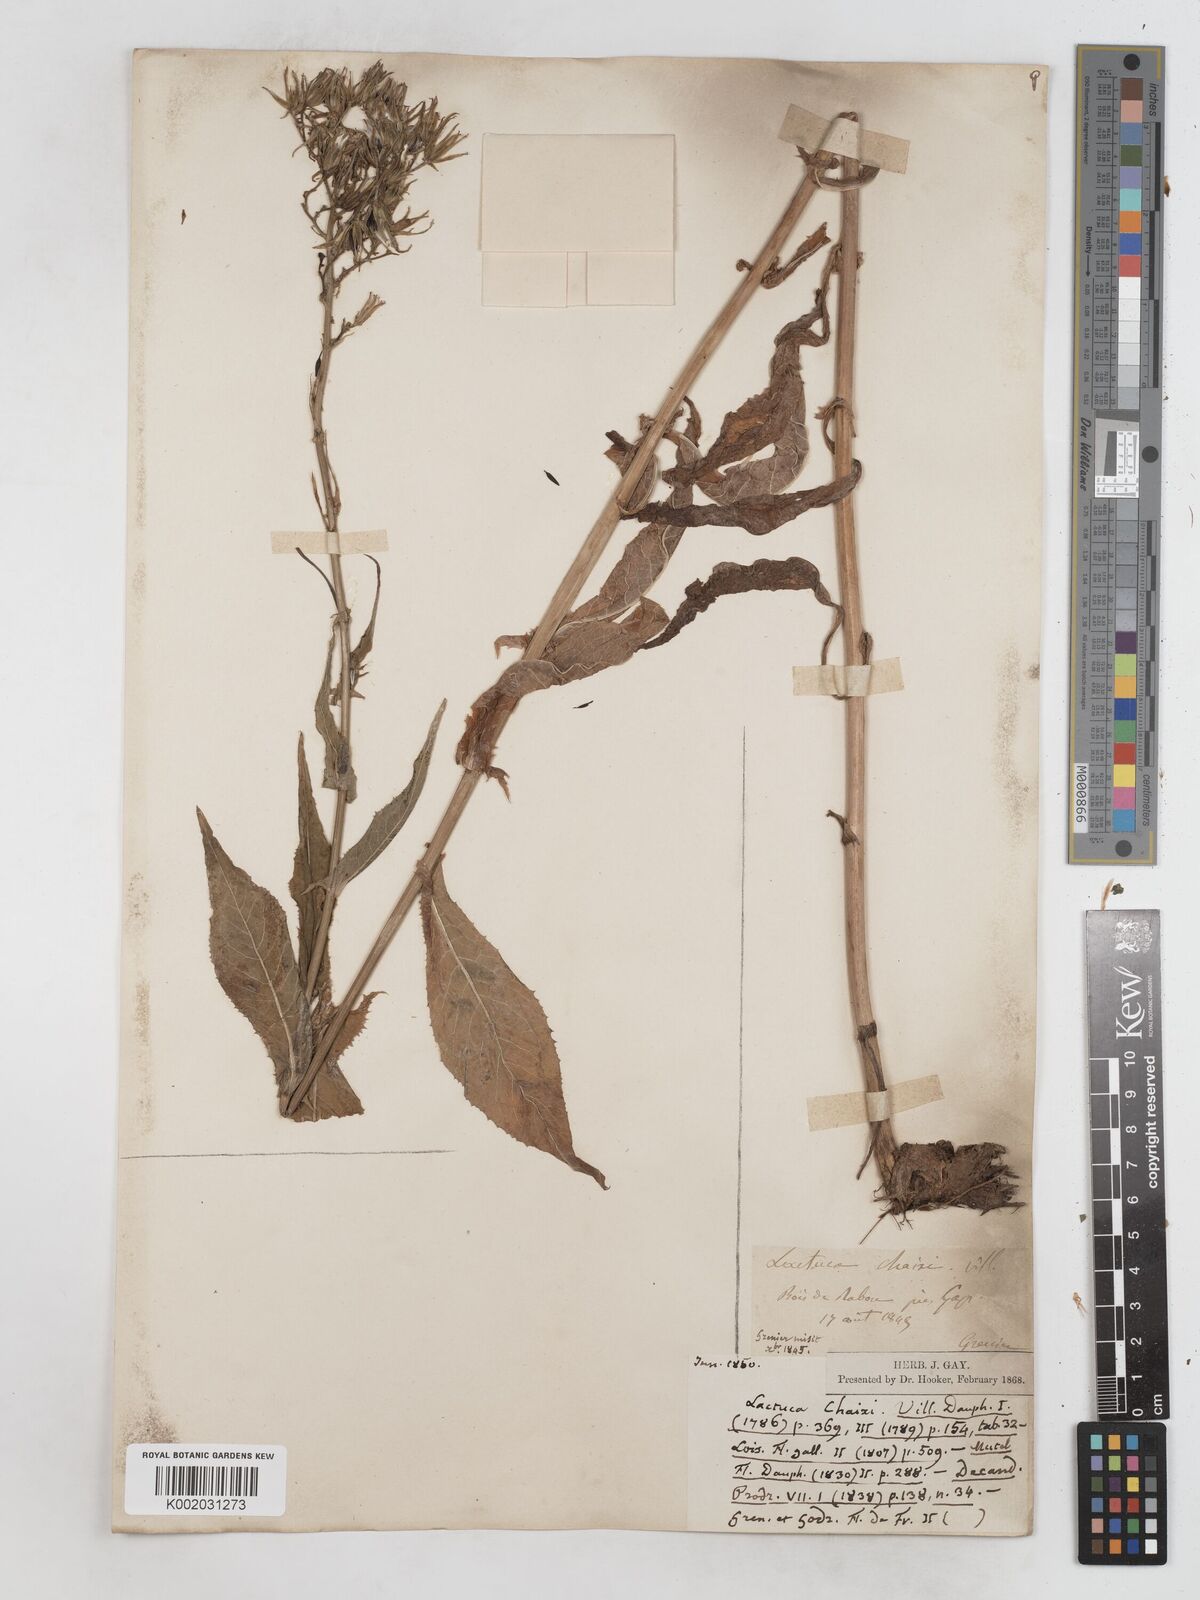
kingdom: Plantae
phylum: Tracheophyta
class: Magnoliopsida
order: Asterales
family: Asteraceae
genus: Lactuca
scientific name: Lactuca quercina
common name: Wild lettuce
